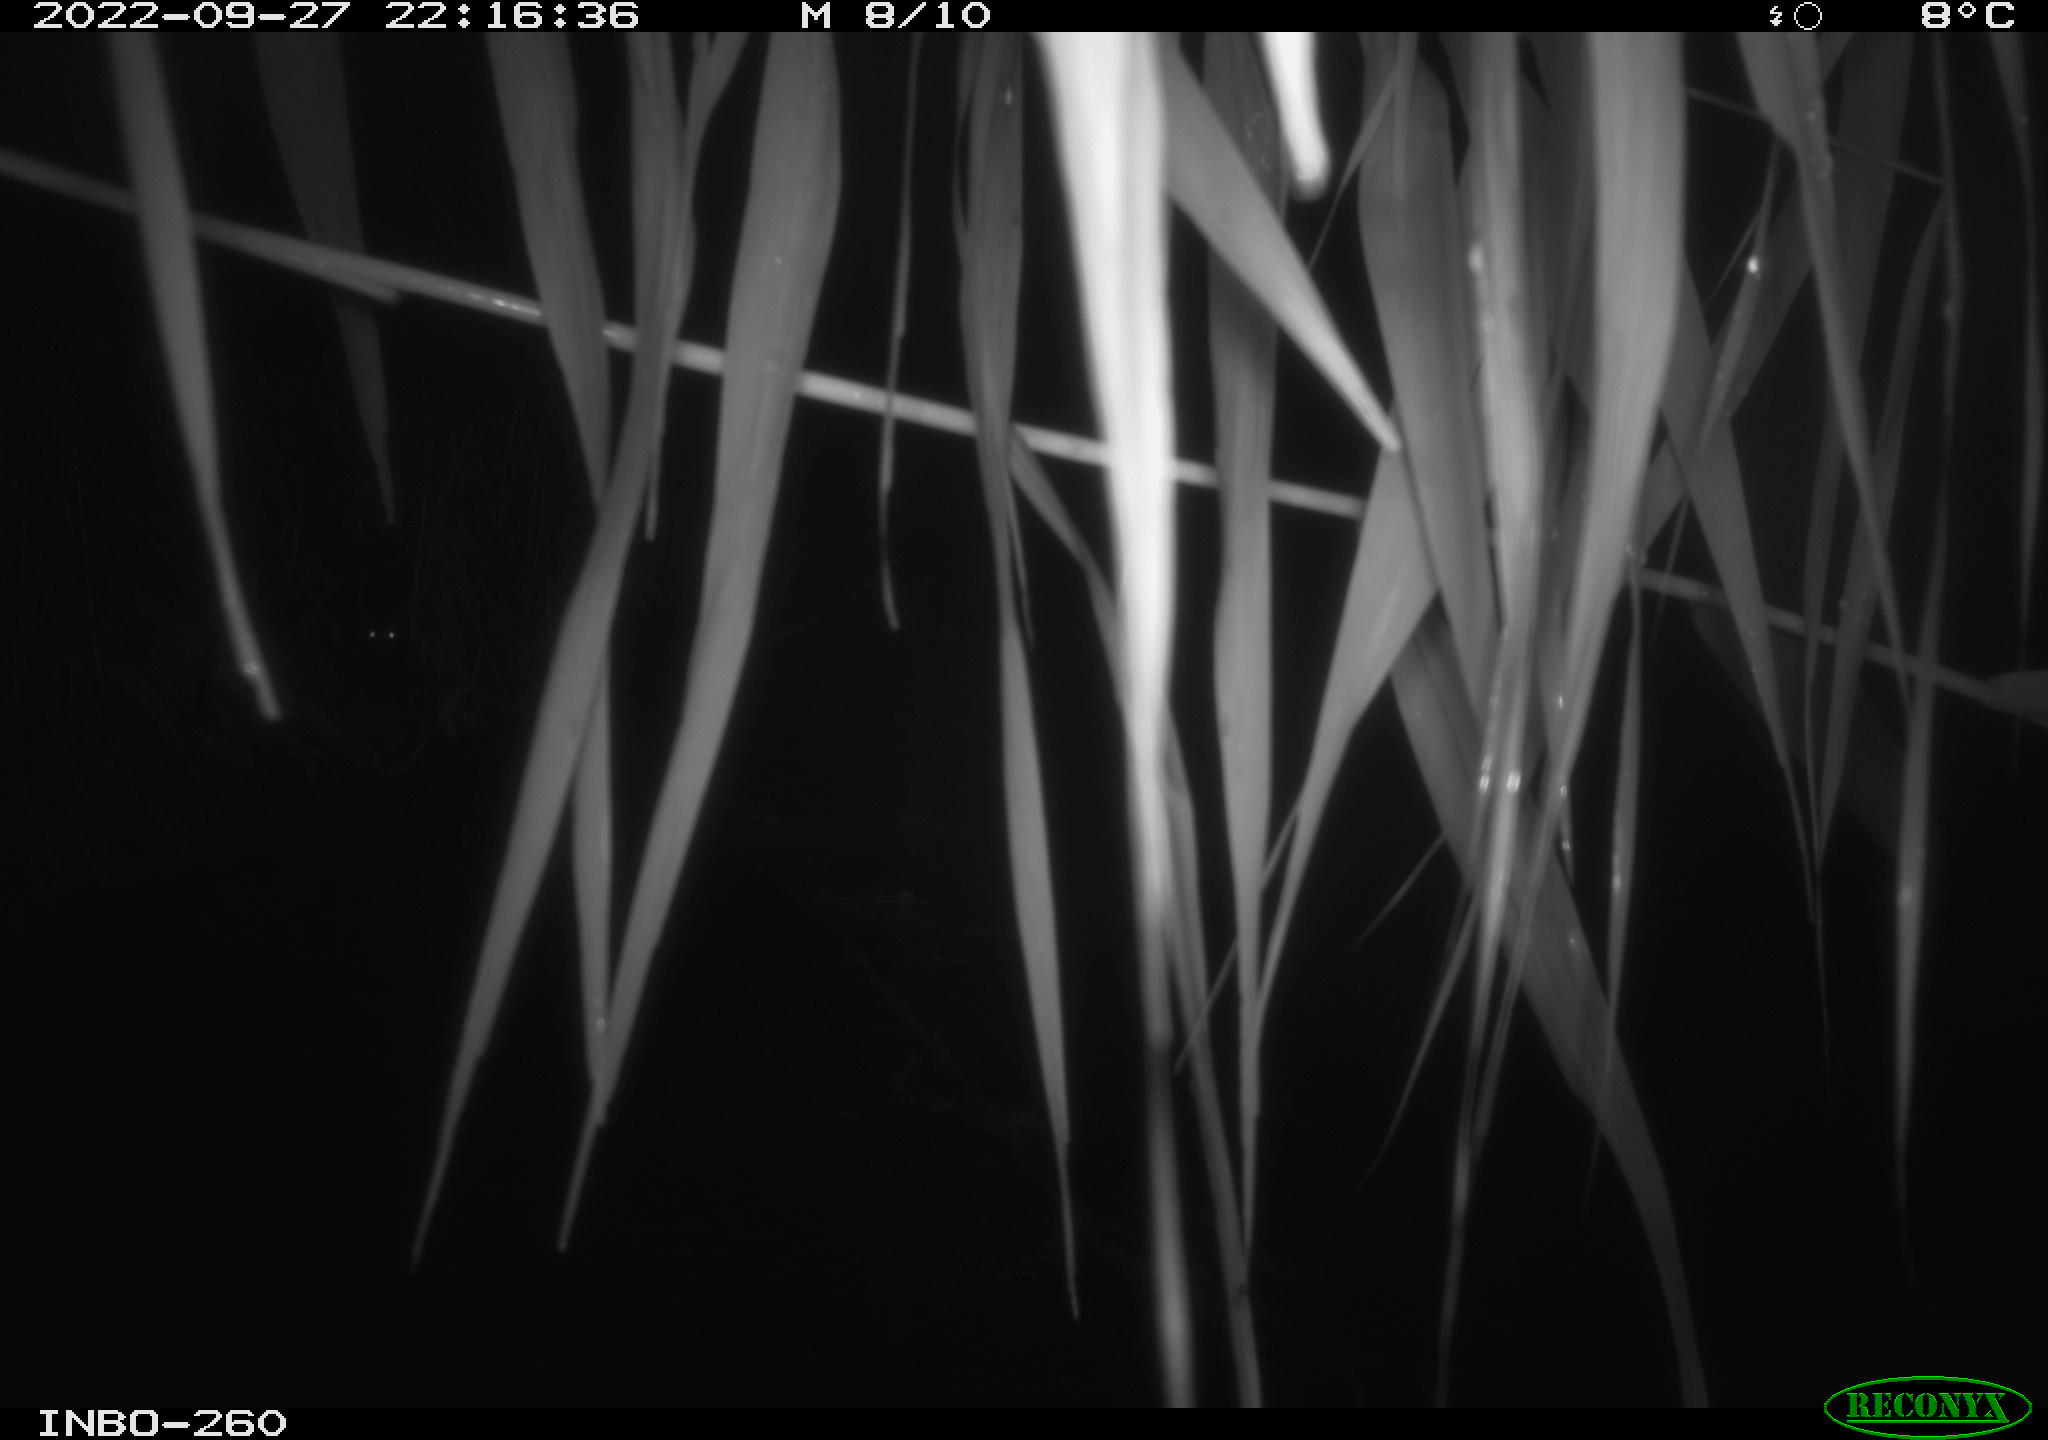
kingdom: Animalia
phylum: Chordata
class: Mammalia
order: Rodentia
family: Muridae
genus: Rattus
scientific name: Rattus norvegicus
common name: Brown rat
